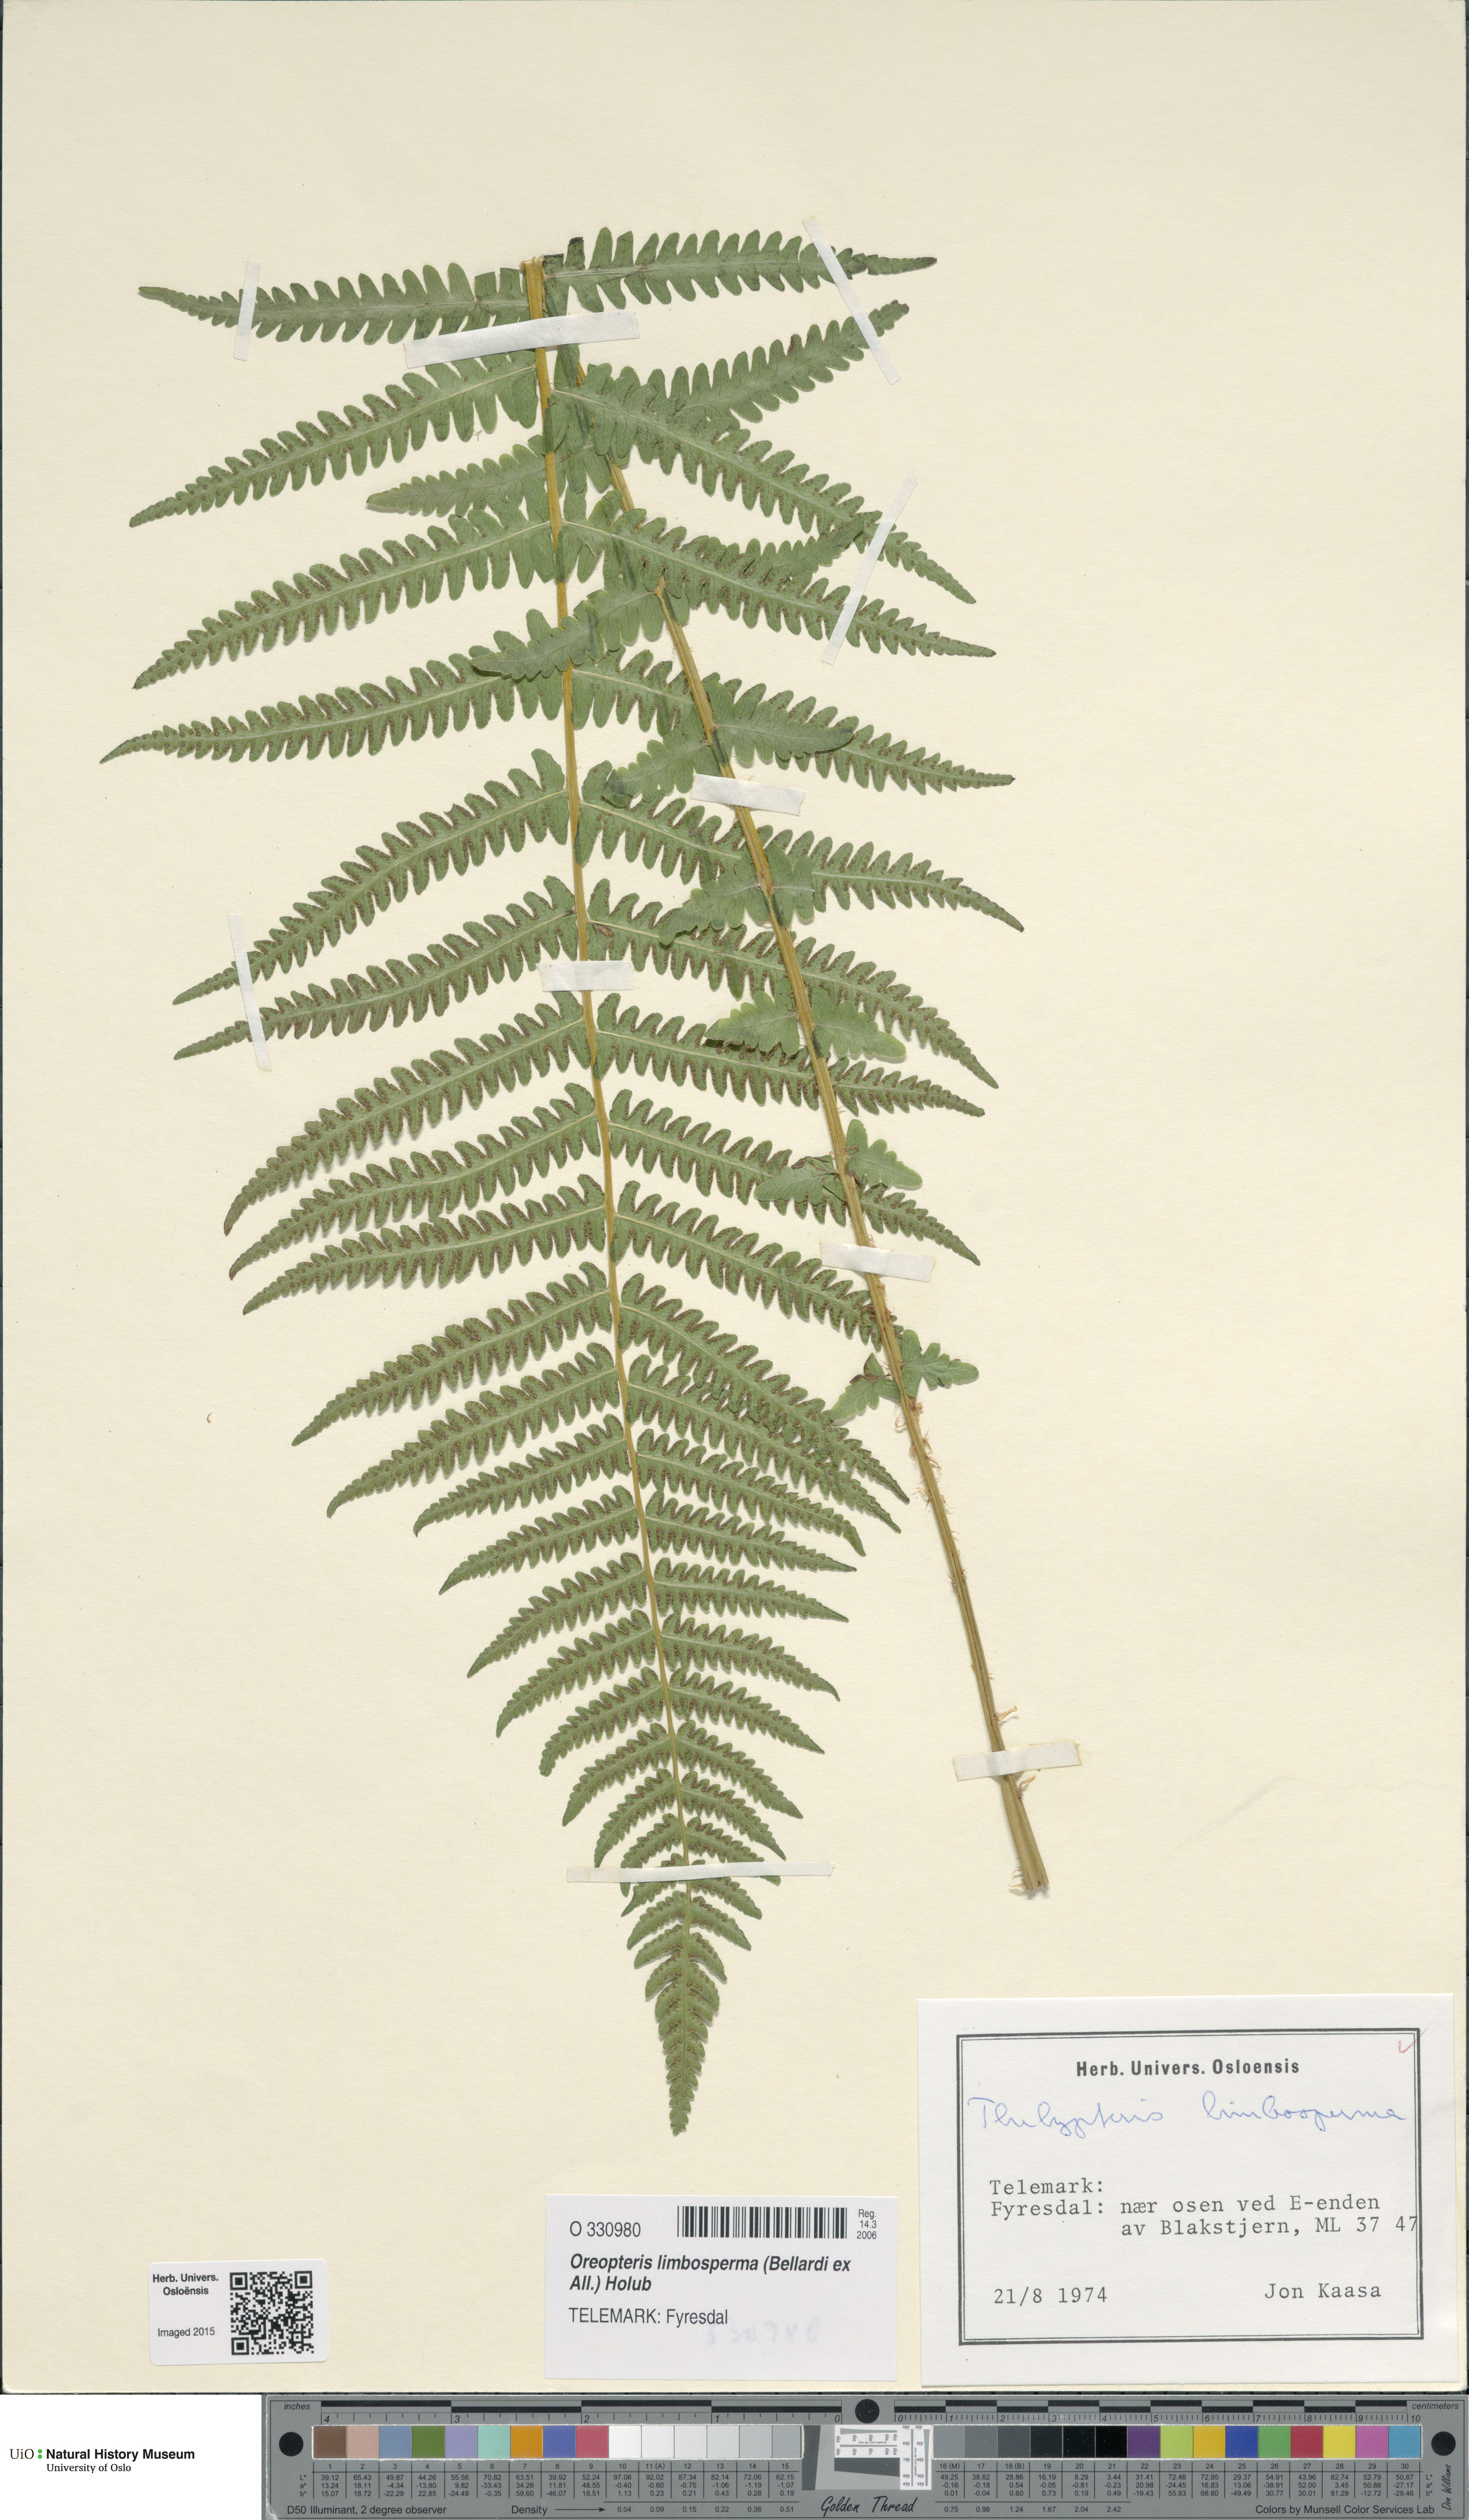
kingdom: Plantae
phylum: Tracheophyta
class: Polypodiopsida
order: Polypodiales
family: Thelypteridaceae
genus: Oreopteris
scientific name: Oreopteris limbosperma
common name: Lemon-scented fern
